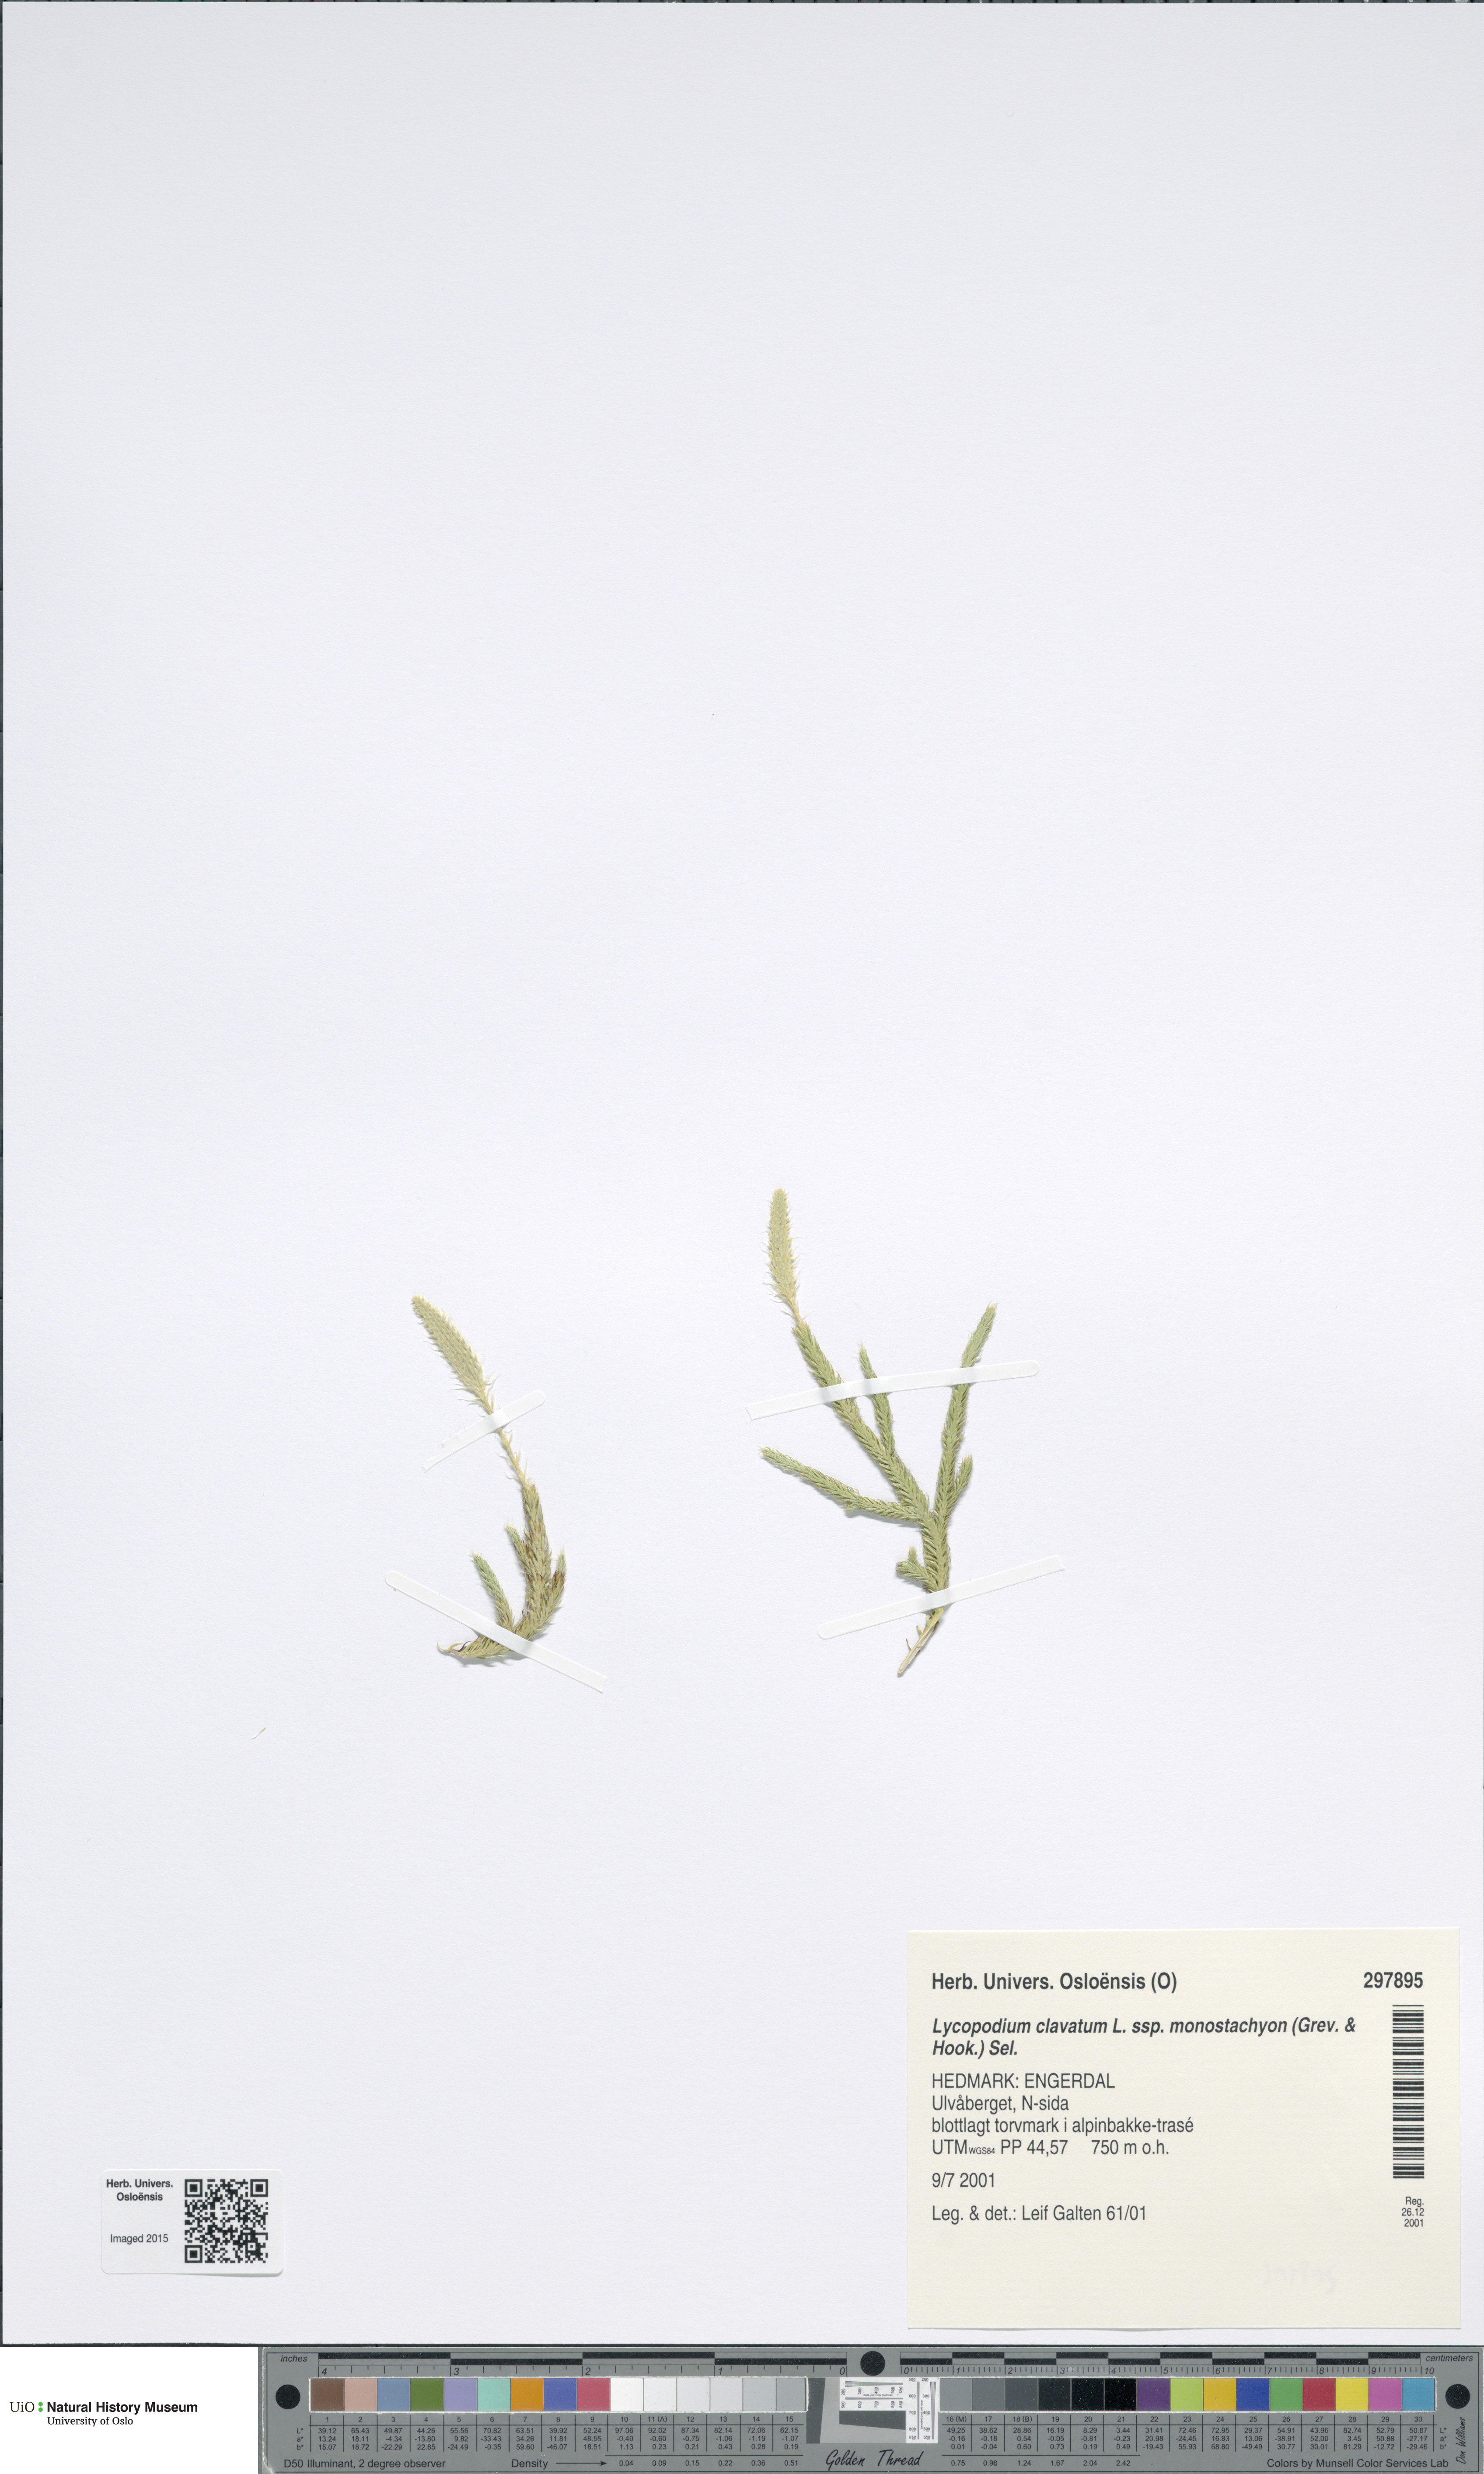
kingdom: Plantae
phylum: Tracheophyta
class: Lycopodiopsida
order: Lycopodiales
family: Lycopodiaceae
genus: Lycopodium
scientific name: Lycopodium lagopus
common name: One-cone clubmoss
